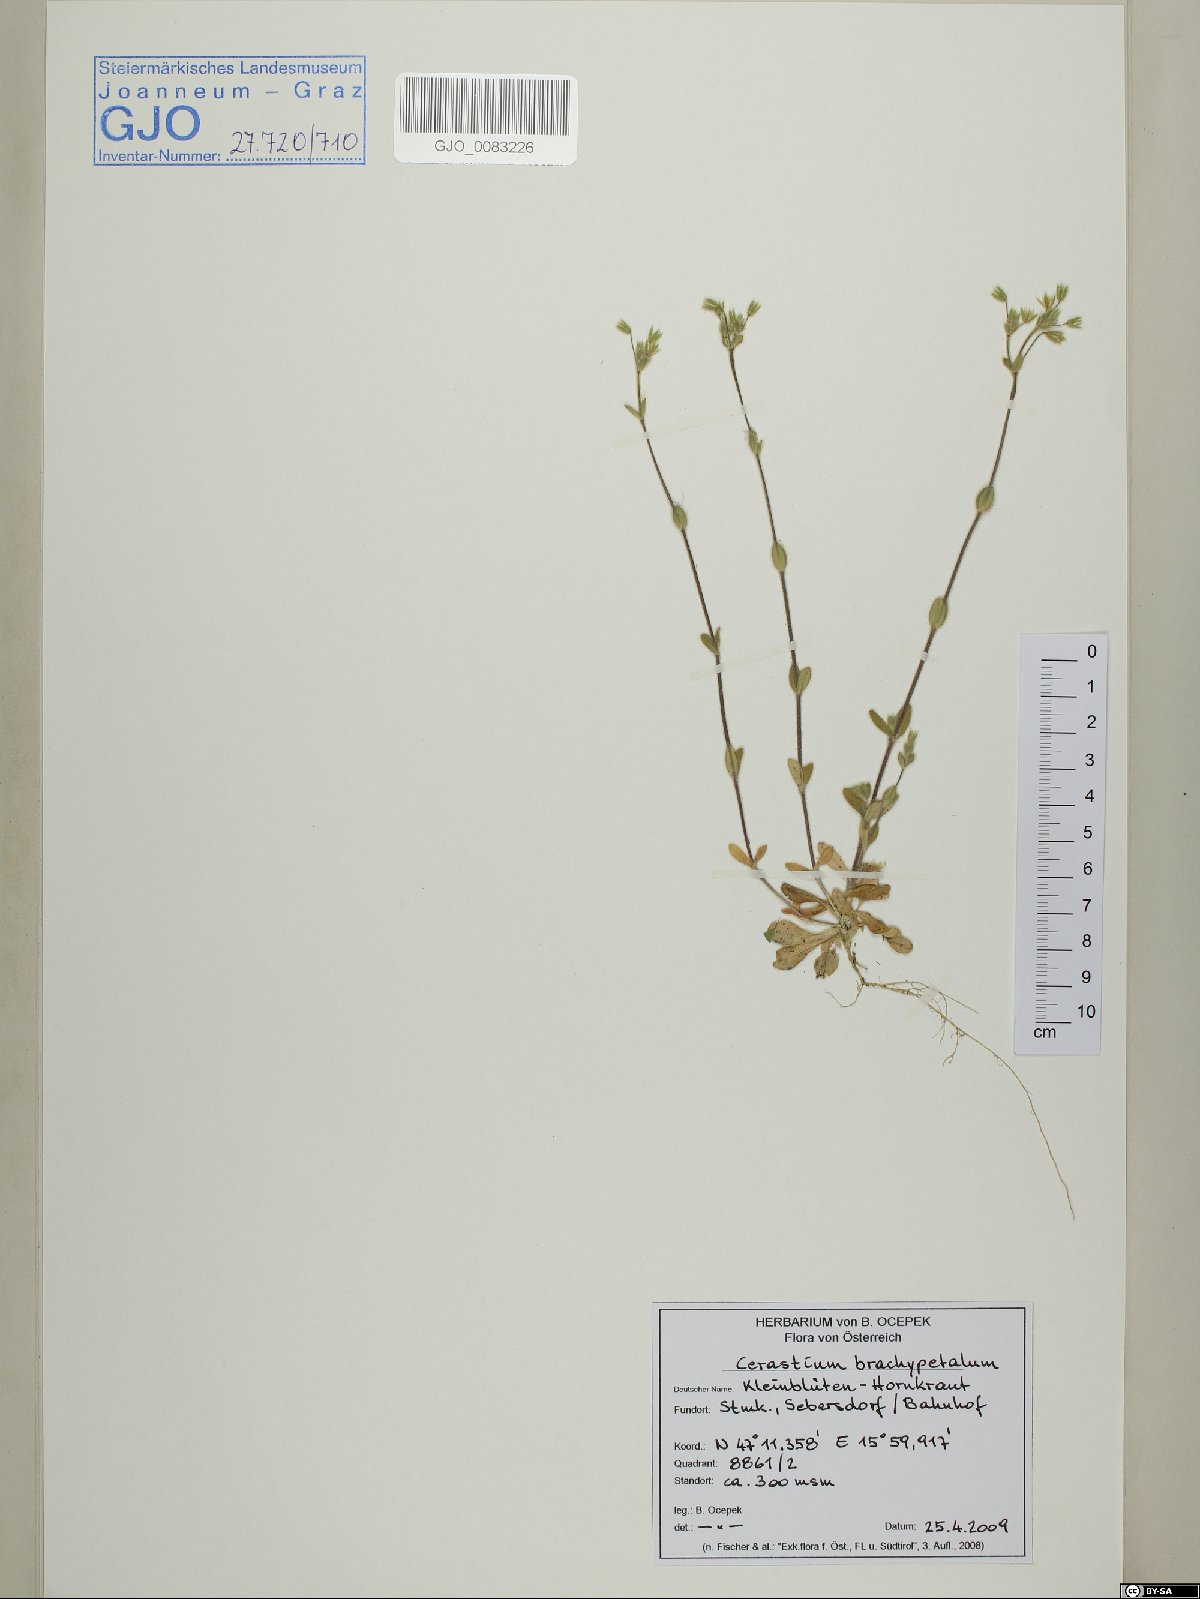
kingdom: Plantae
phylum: Tracheophyta
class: Magnoliopsida
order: Caryophyllales
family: Caryophyllaceae
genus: Cerastium
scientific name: Cerastium brachypetalum
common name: Grey mouse-ear
